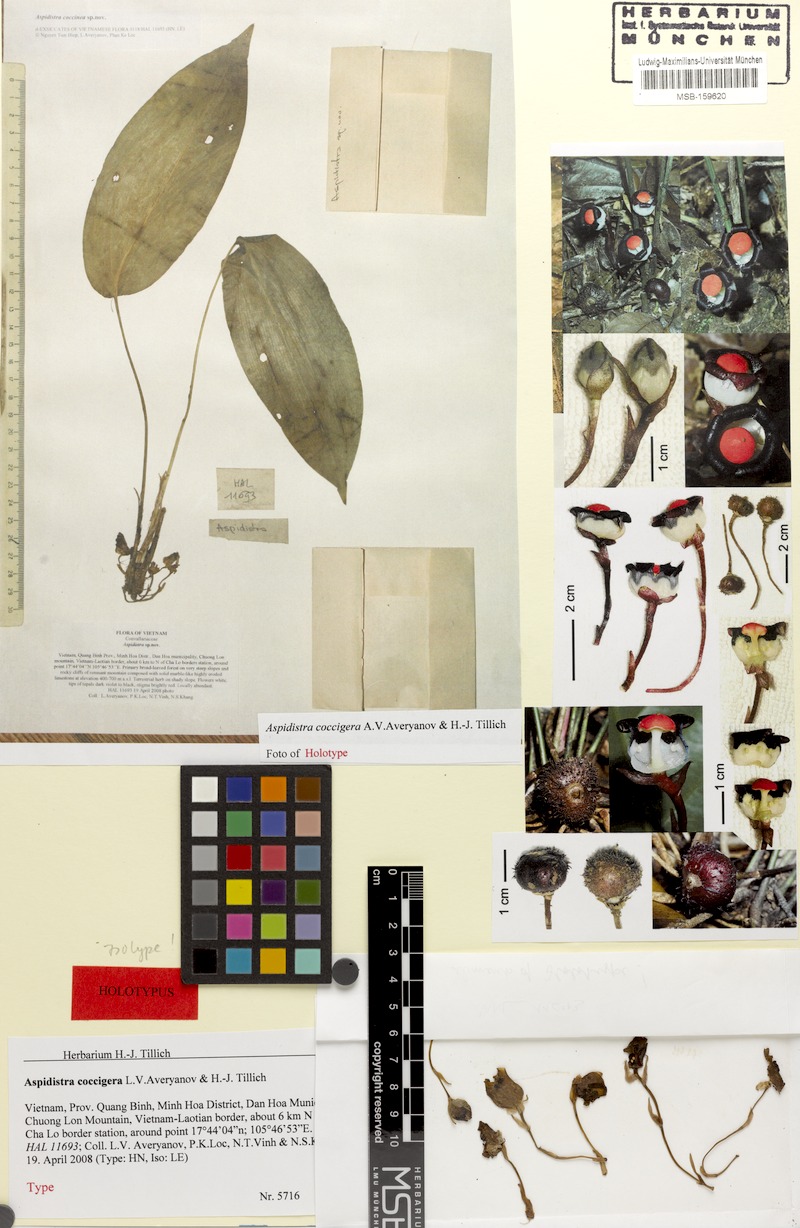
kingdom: Plantae
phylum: Tracheophyta
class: Liliopsida
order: Asparagales
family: Asparagaceae
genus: Aspidistra
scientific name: Aspidistra coccigera
